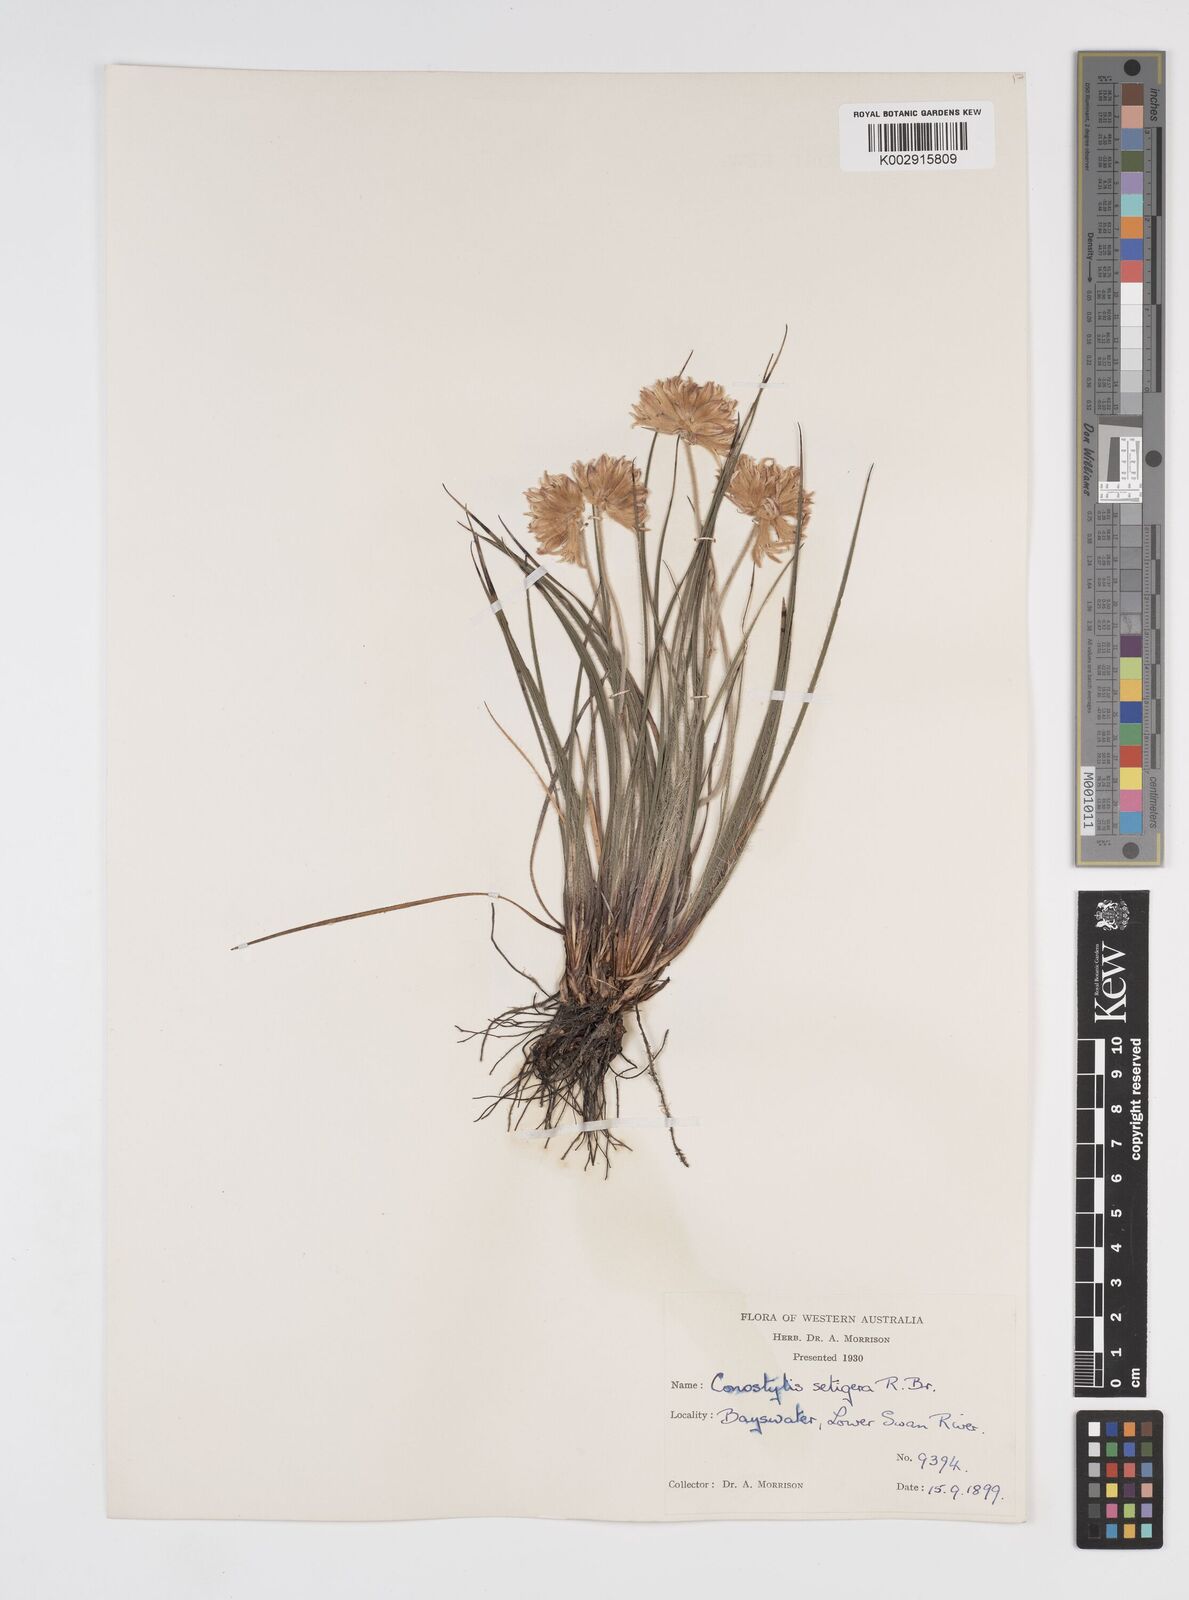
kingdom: Plantae
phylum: Tracheophyta
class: Liliopsida
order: Commelinales
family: Haemodoraceae
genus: Conostylis
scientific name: Conostylis setigera
